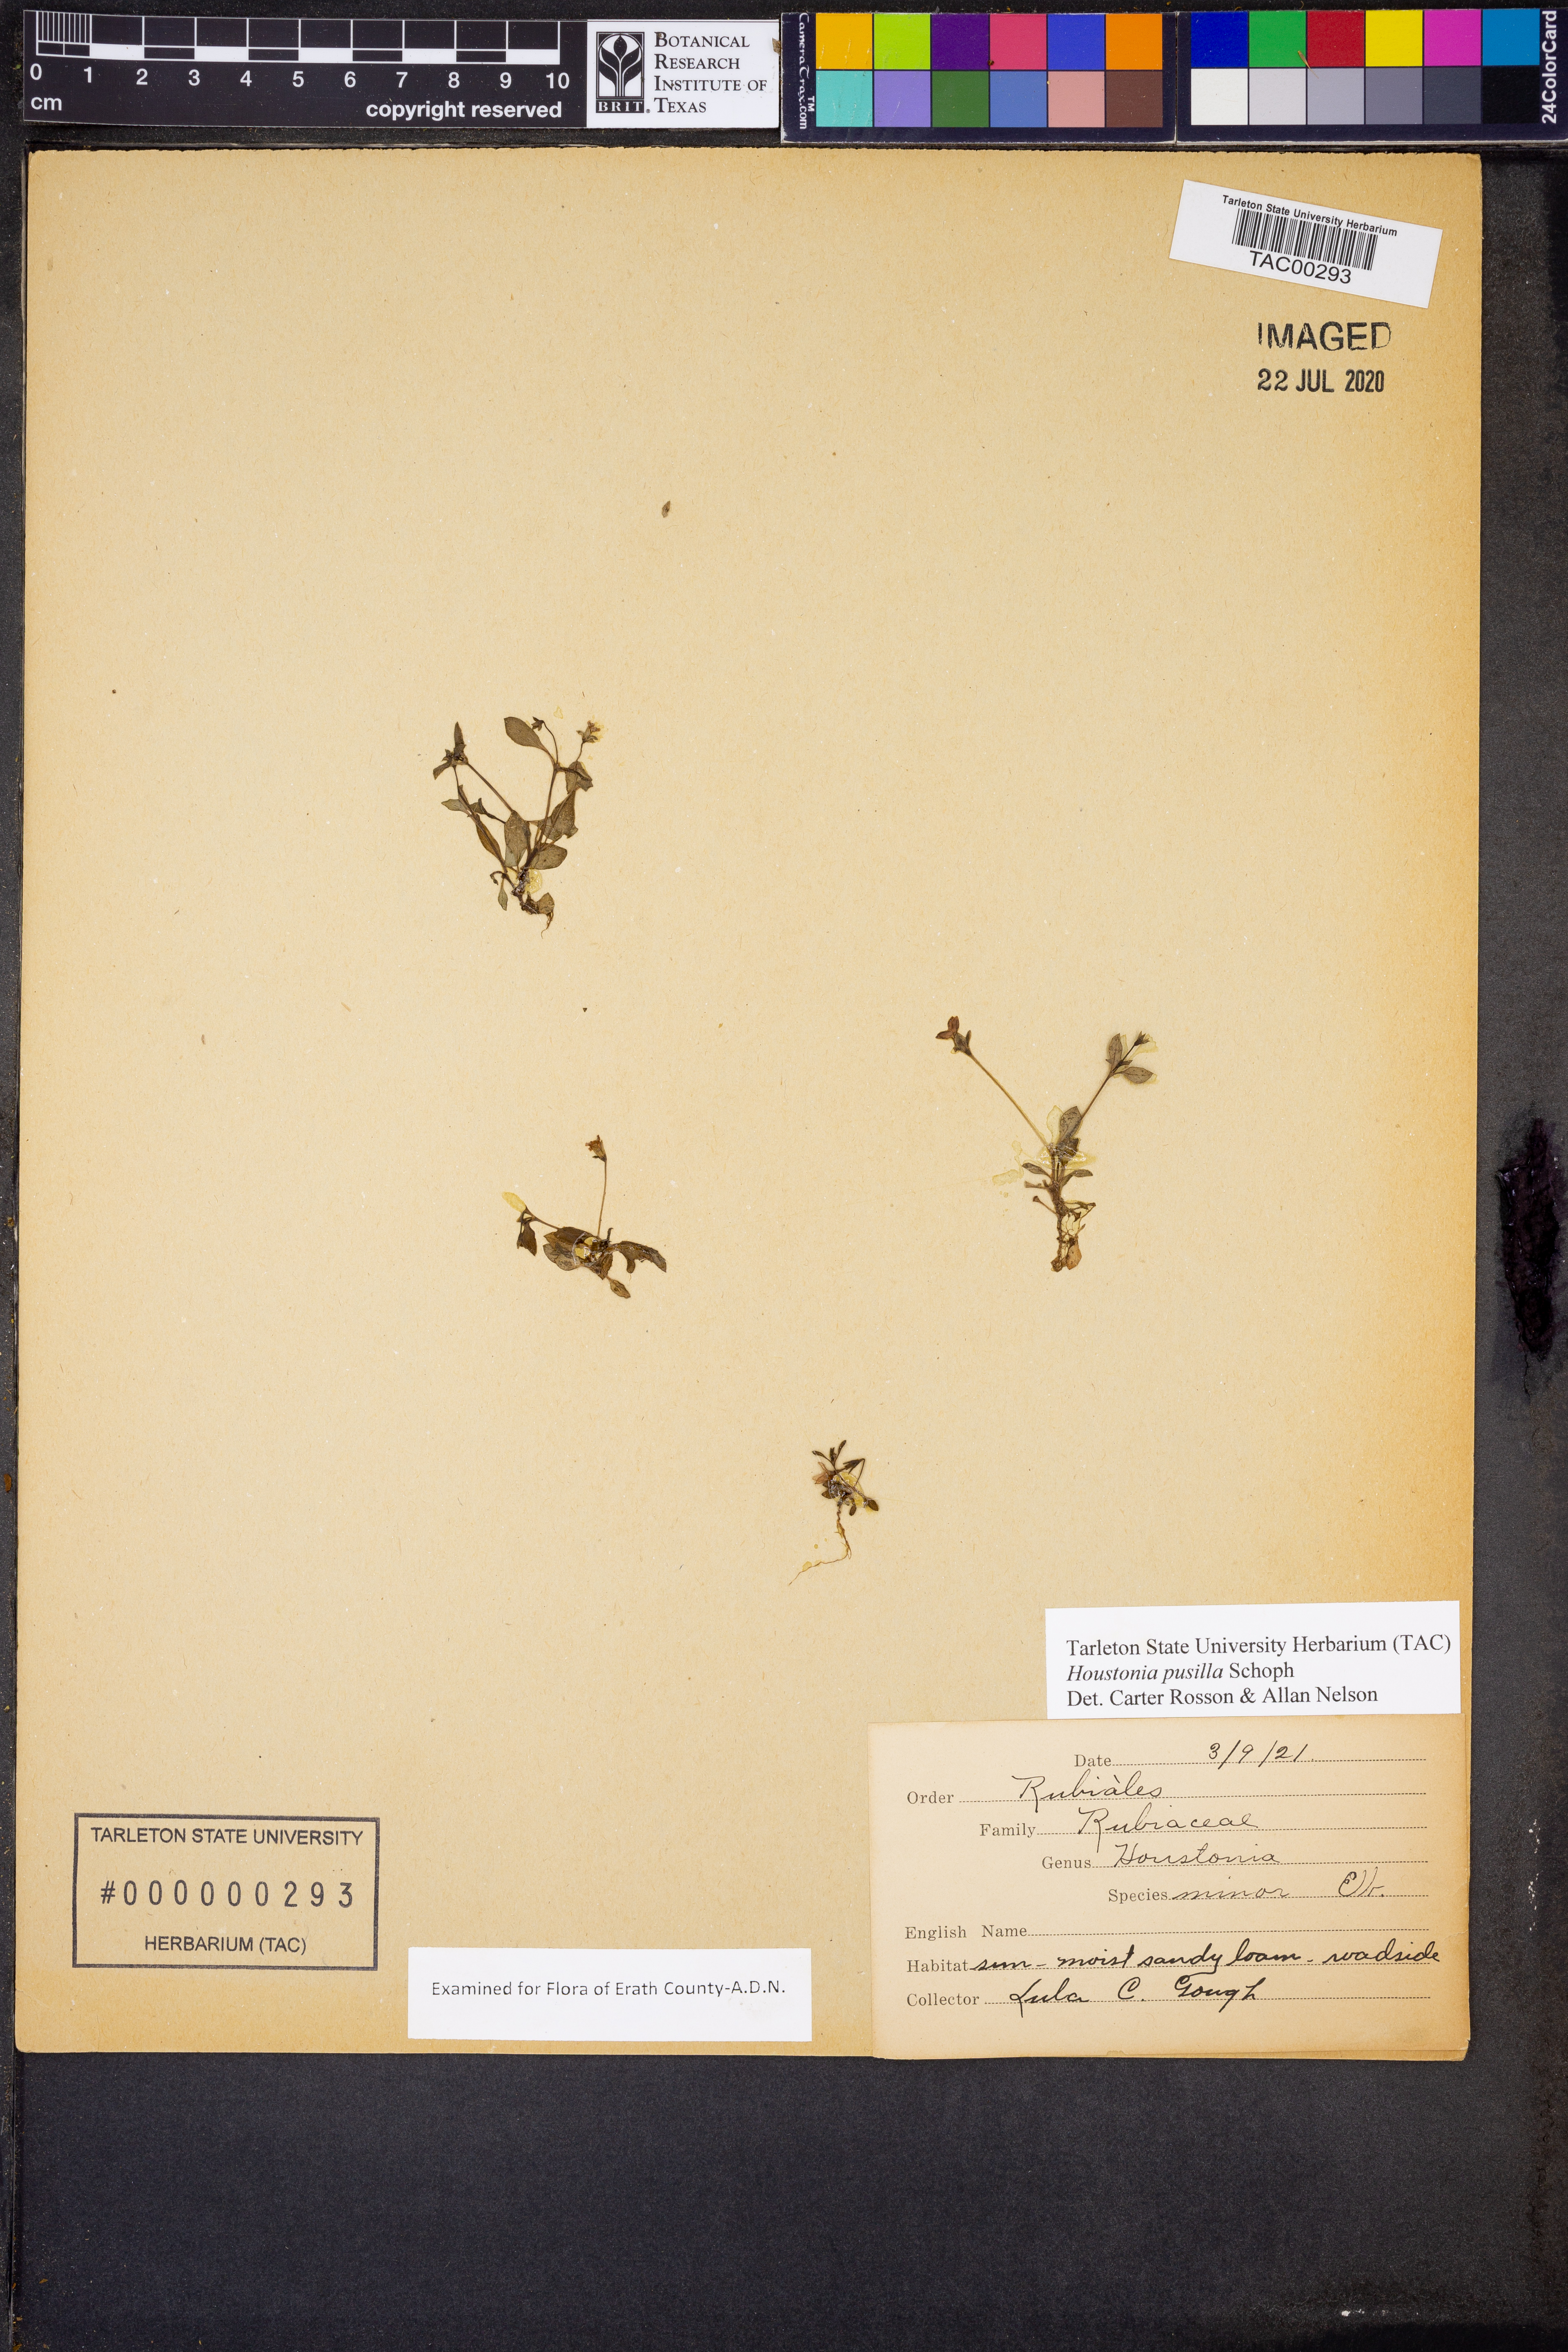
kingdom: Plantae
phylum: Tracheophyta
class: Magnoliopsida
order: Gentianales
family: Rubiaceae
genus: Houstonia
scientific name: Houstonia pusilla
